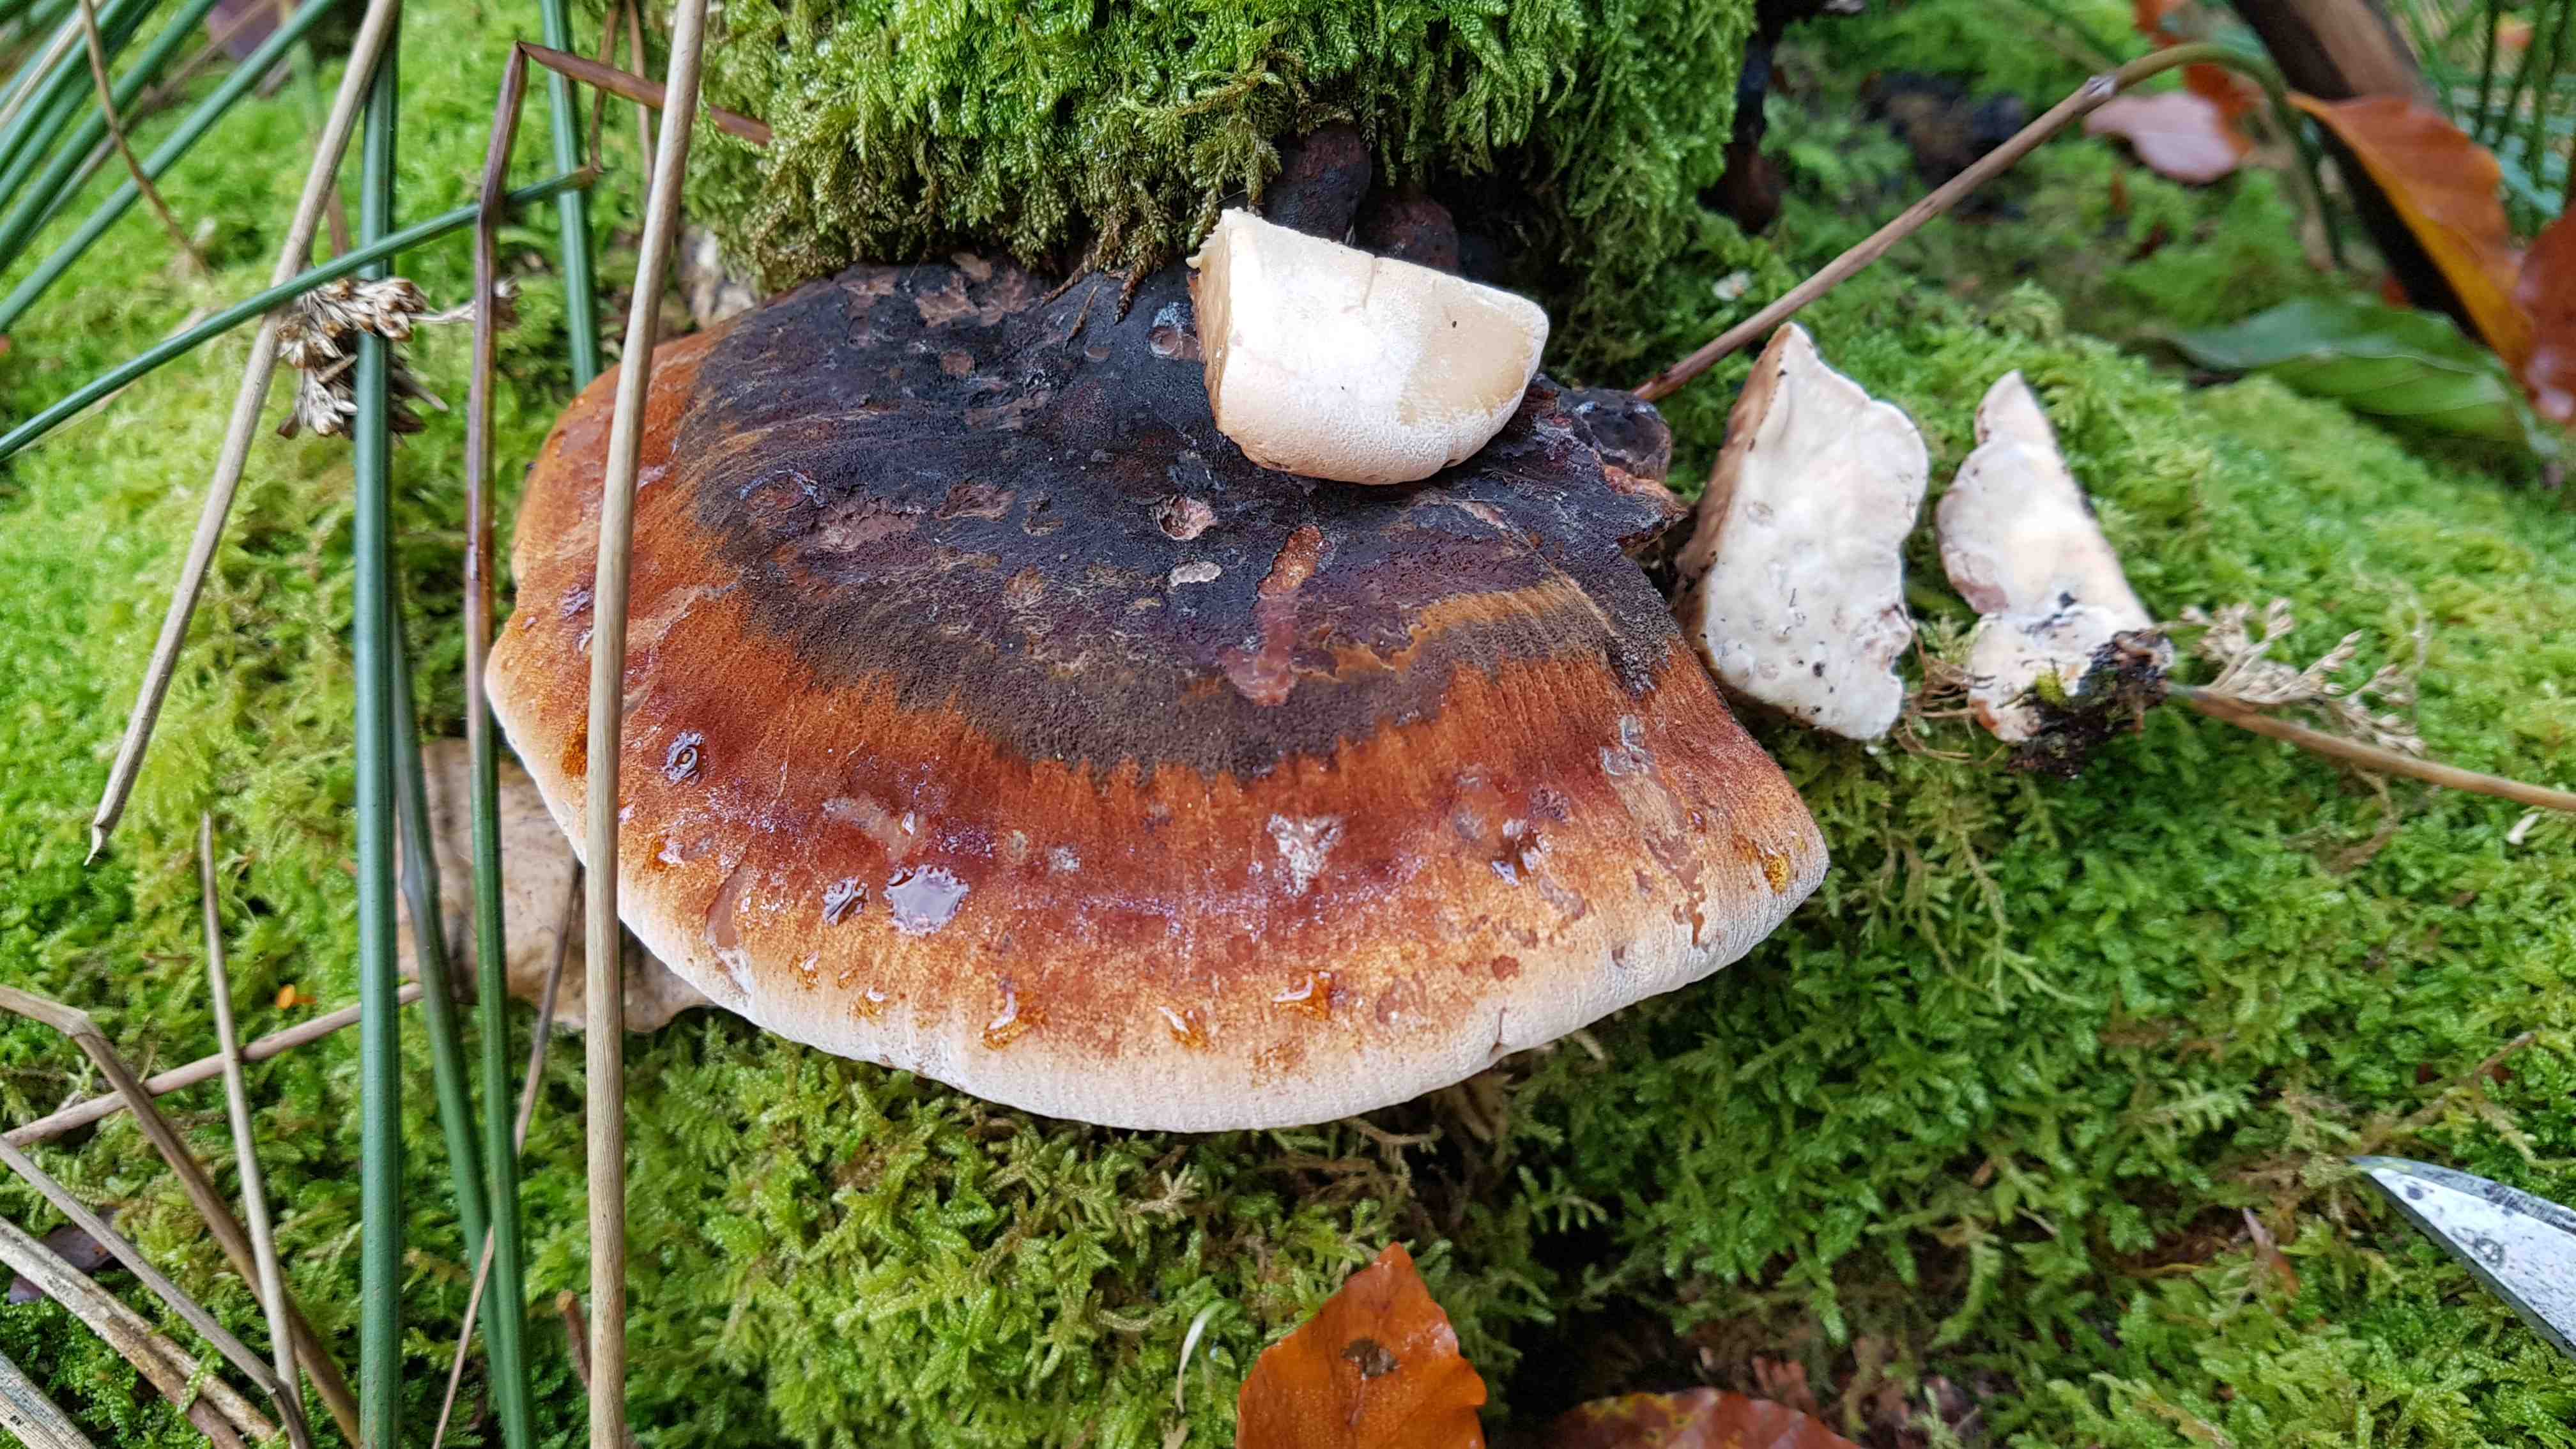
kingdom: Fungi
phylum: Basidiomycota
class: Agaricomycetes
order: Polyporales
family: Ischnodermataceae
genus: Ischnoderma
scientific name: Ischnoderma resinosum
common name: løv-tjæreporesvamp
